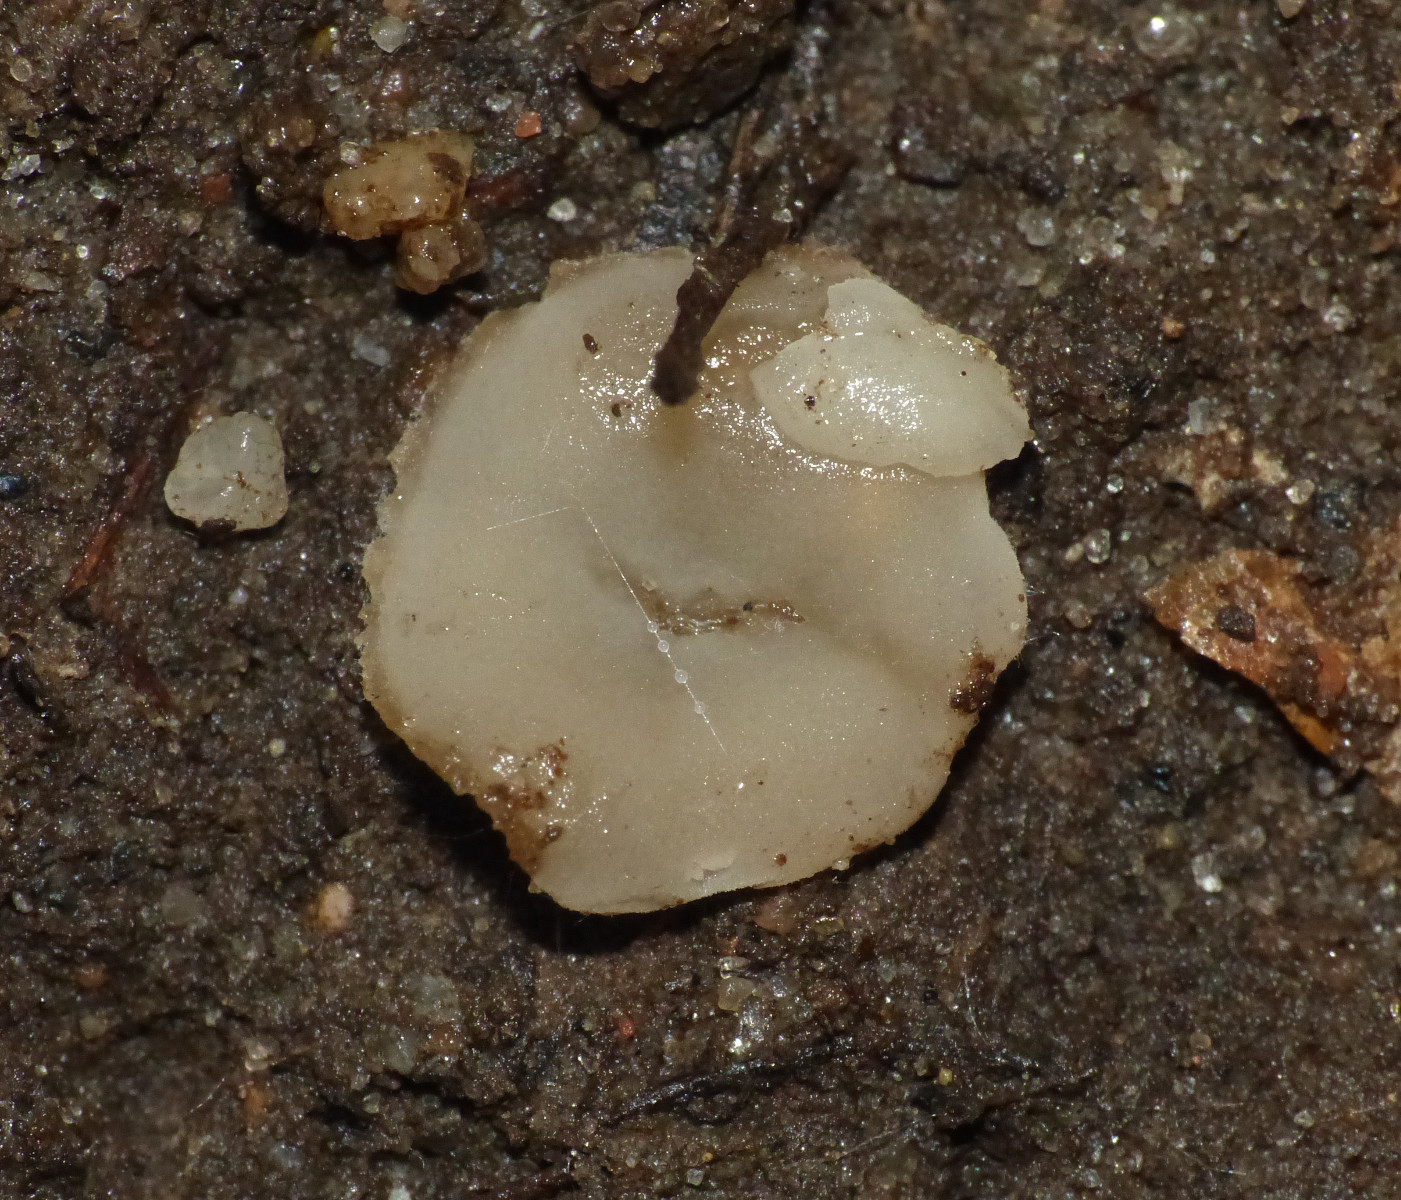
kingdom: Fungi
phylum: Ascomycota
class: Pezizomycetes
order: Pezizales
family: Pyronemataceae
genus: Tarzetta
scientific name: Tarzetta cupularis
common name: gulbrun pokalbæger
